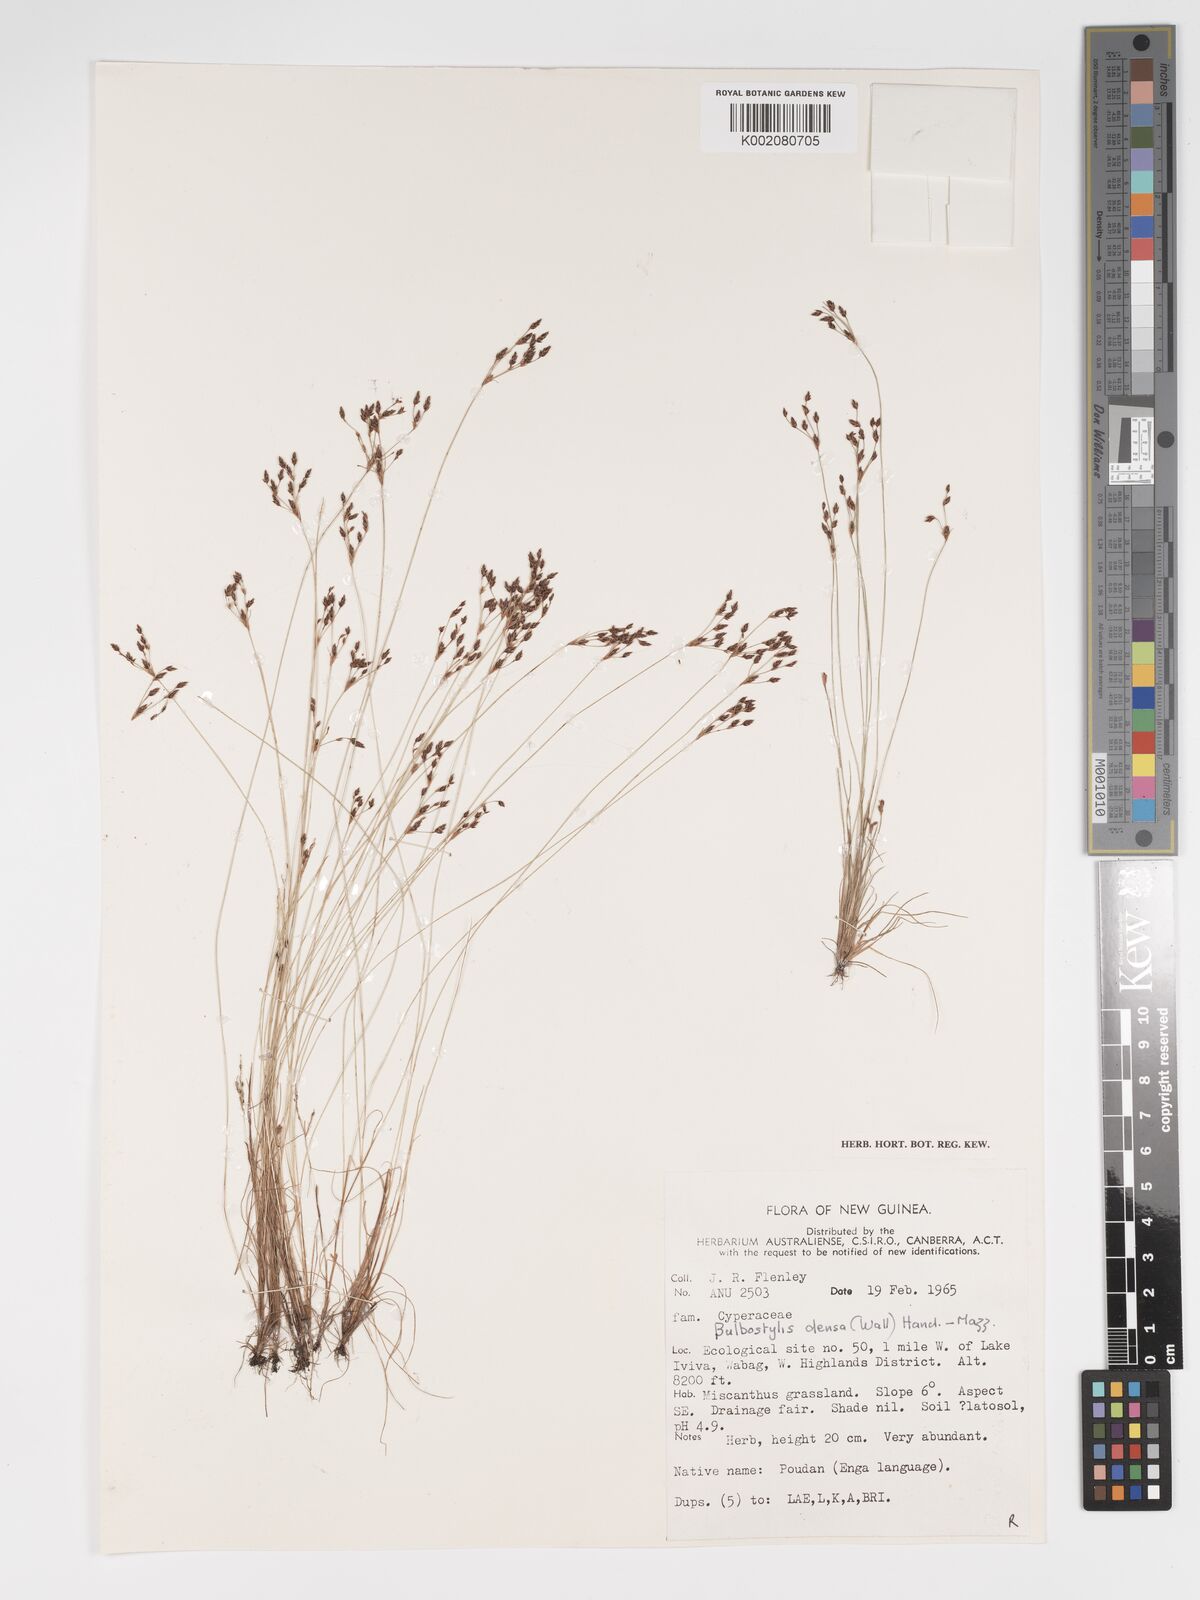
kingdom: Plantae
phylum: Tracheophyta
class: Liliopsida
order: Poales
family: Cyperaceae
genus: Bulbostylis
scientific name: Bulbostylis densa
